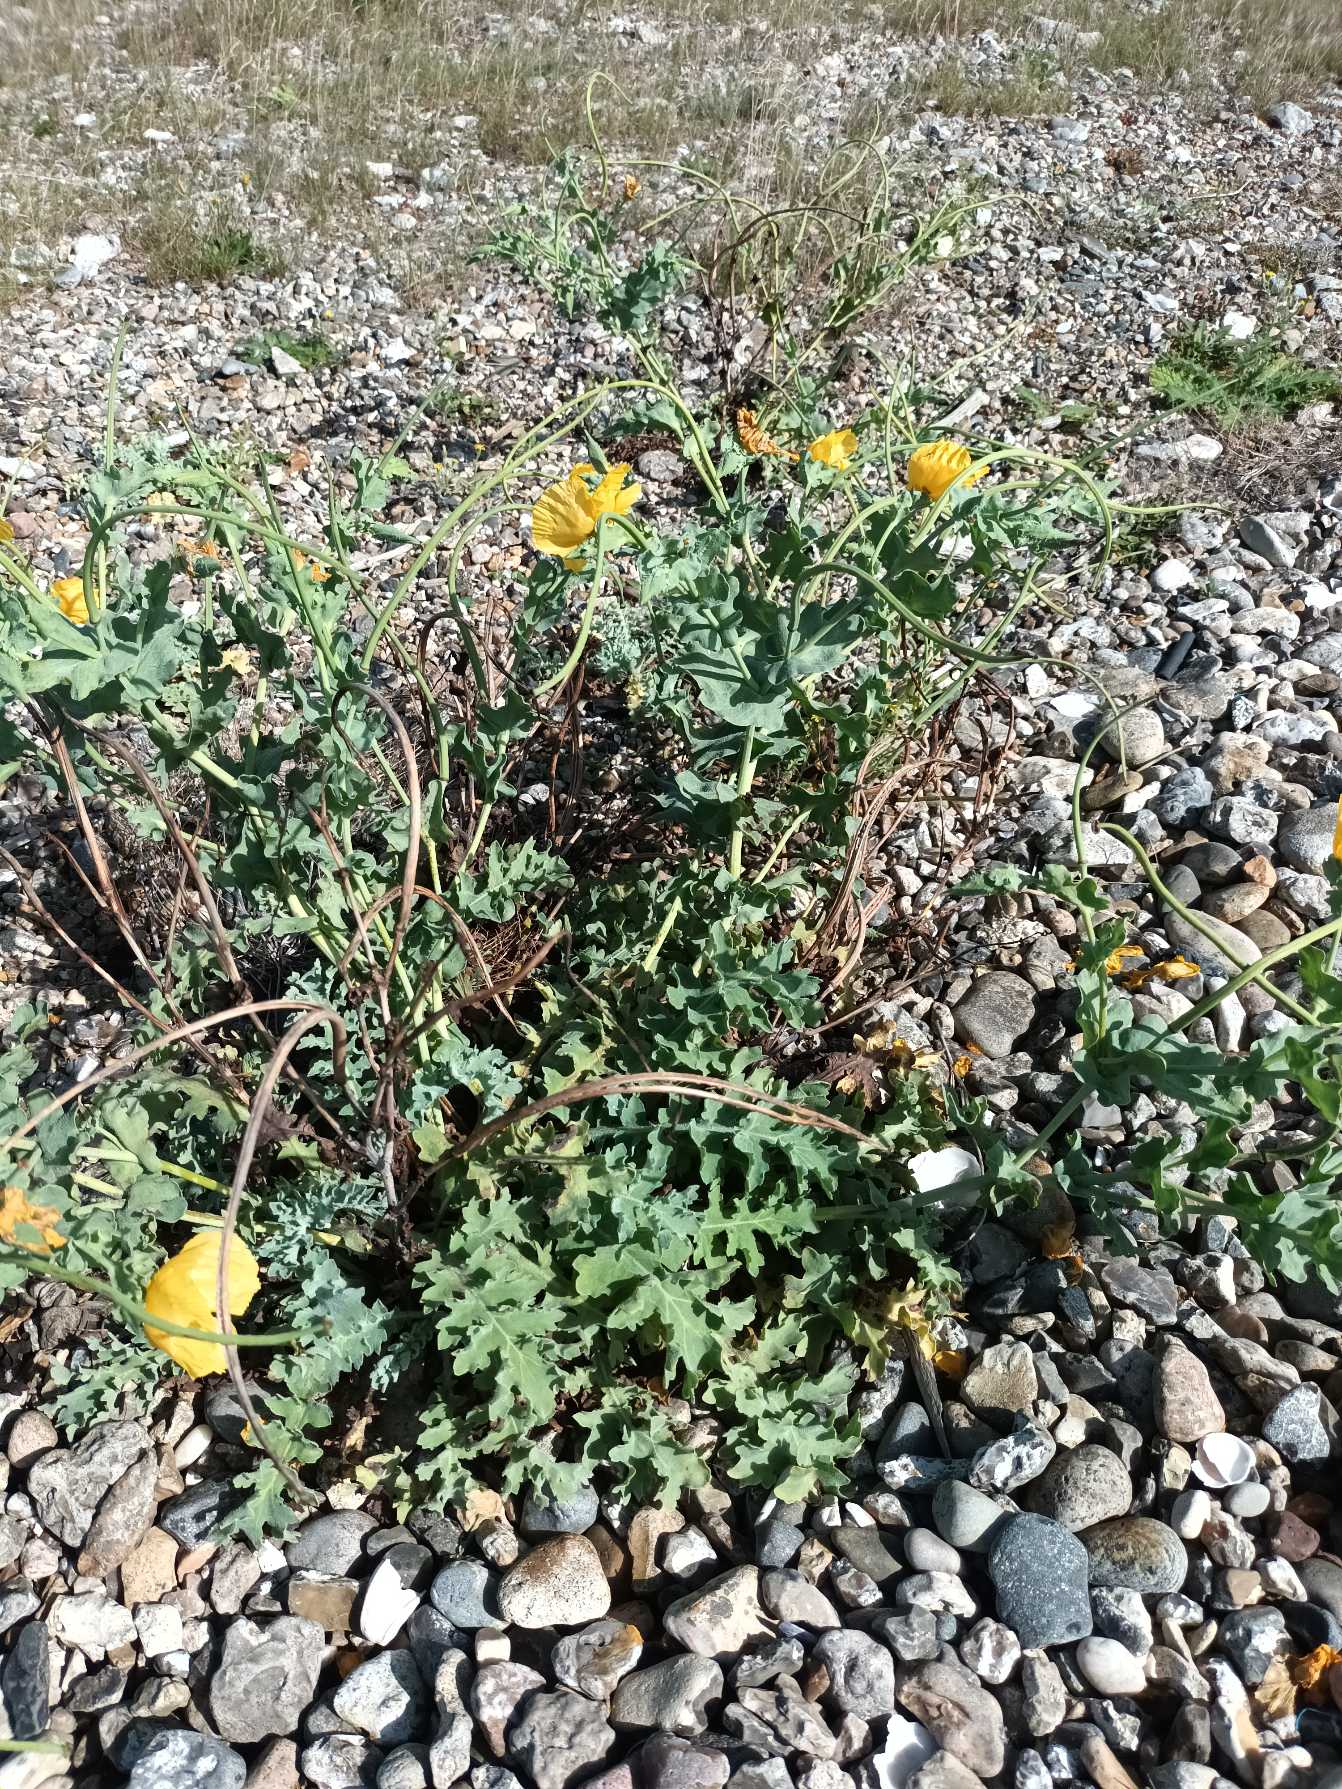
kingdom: Plantae
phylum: Tracheophyta
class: Magnoliopsida
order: Ranunculales
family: Papaveraceae
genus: Glaucium
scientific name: Glaucium flavum
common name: Hornskulpe
